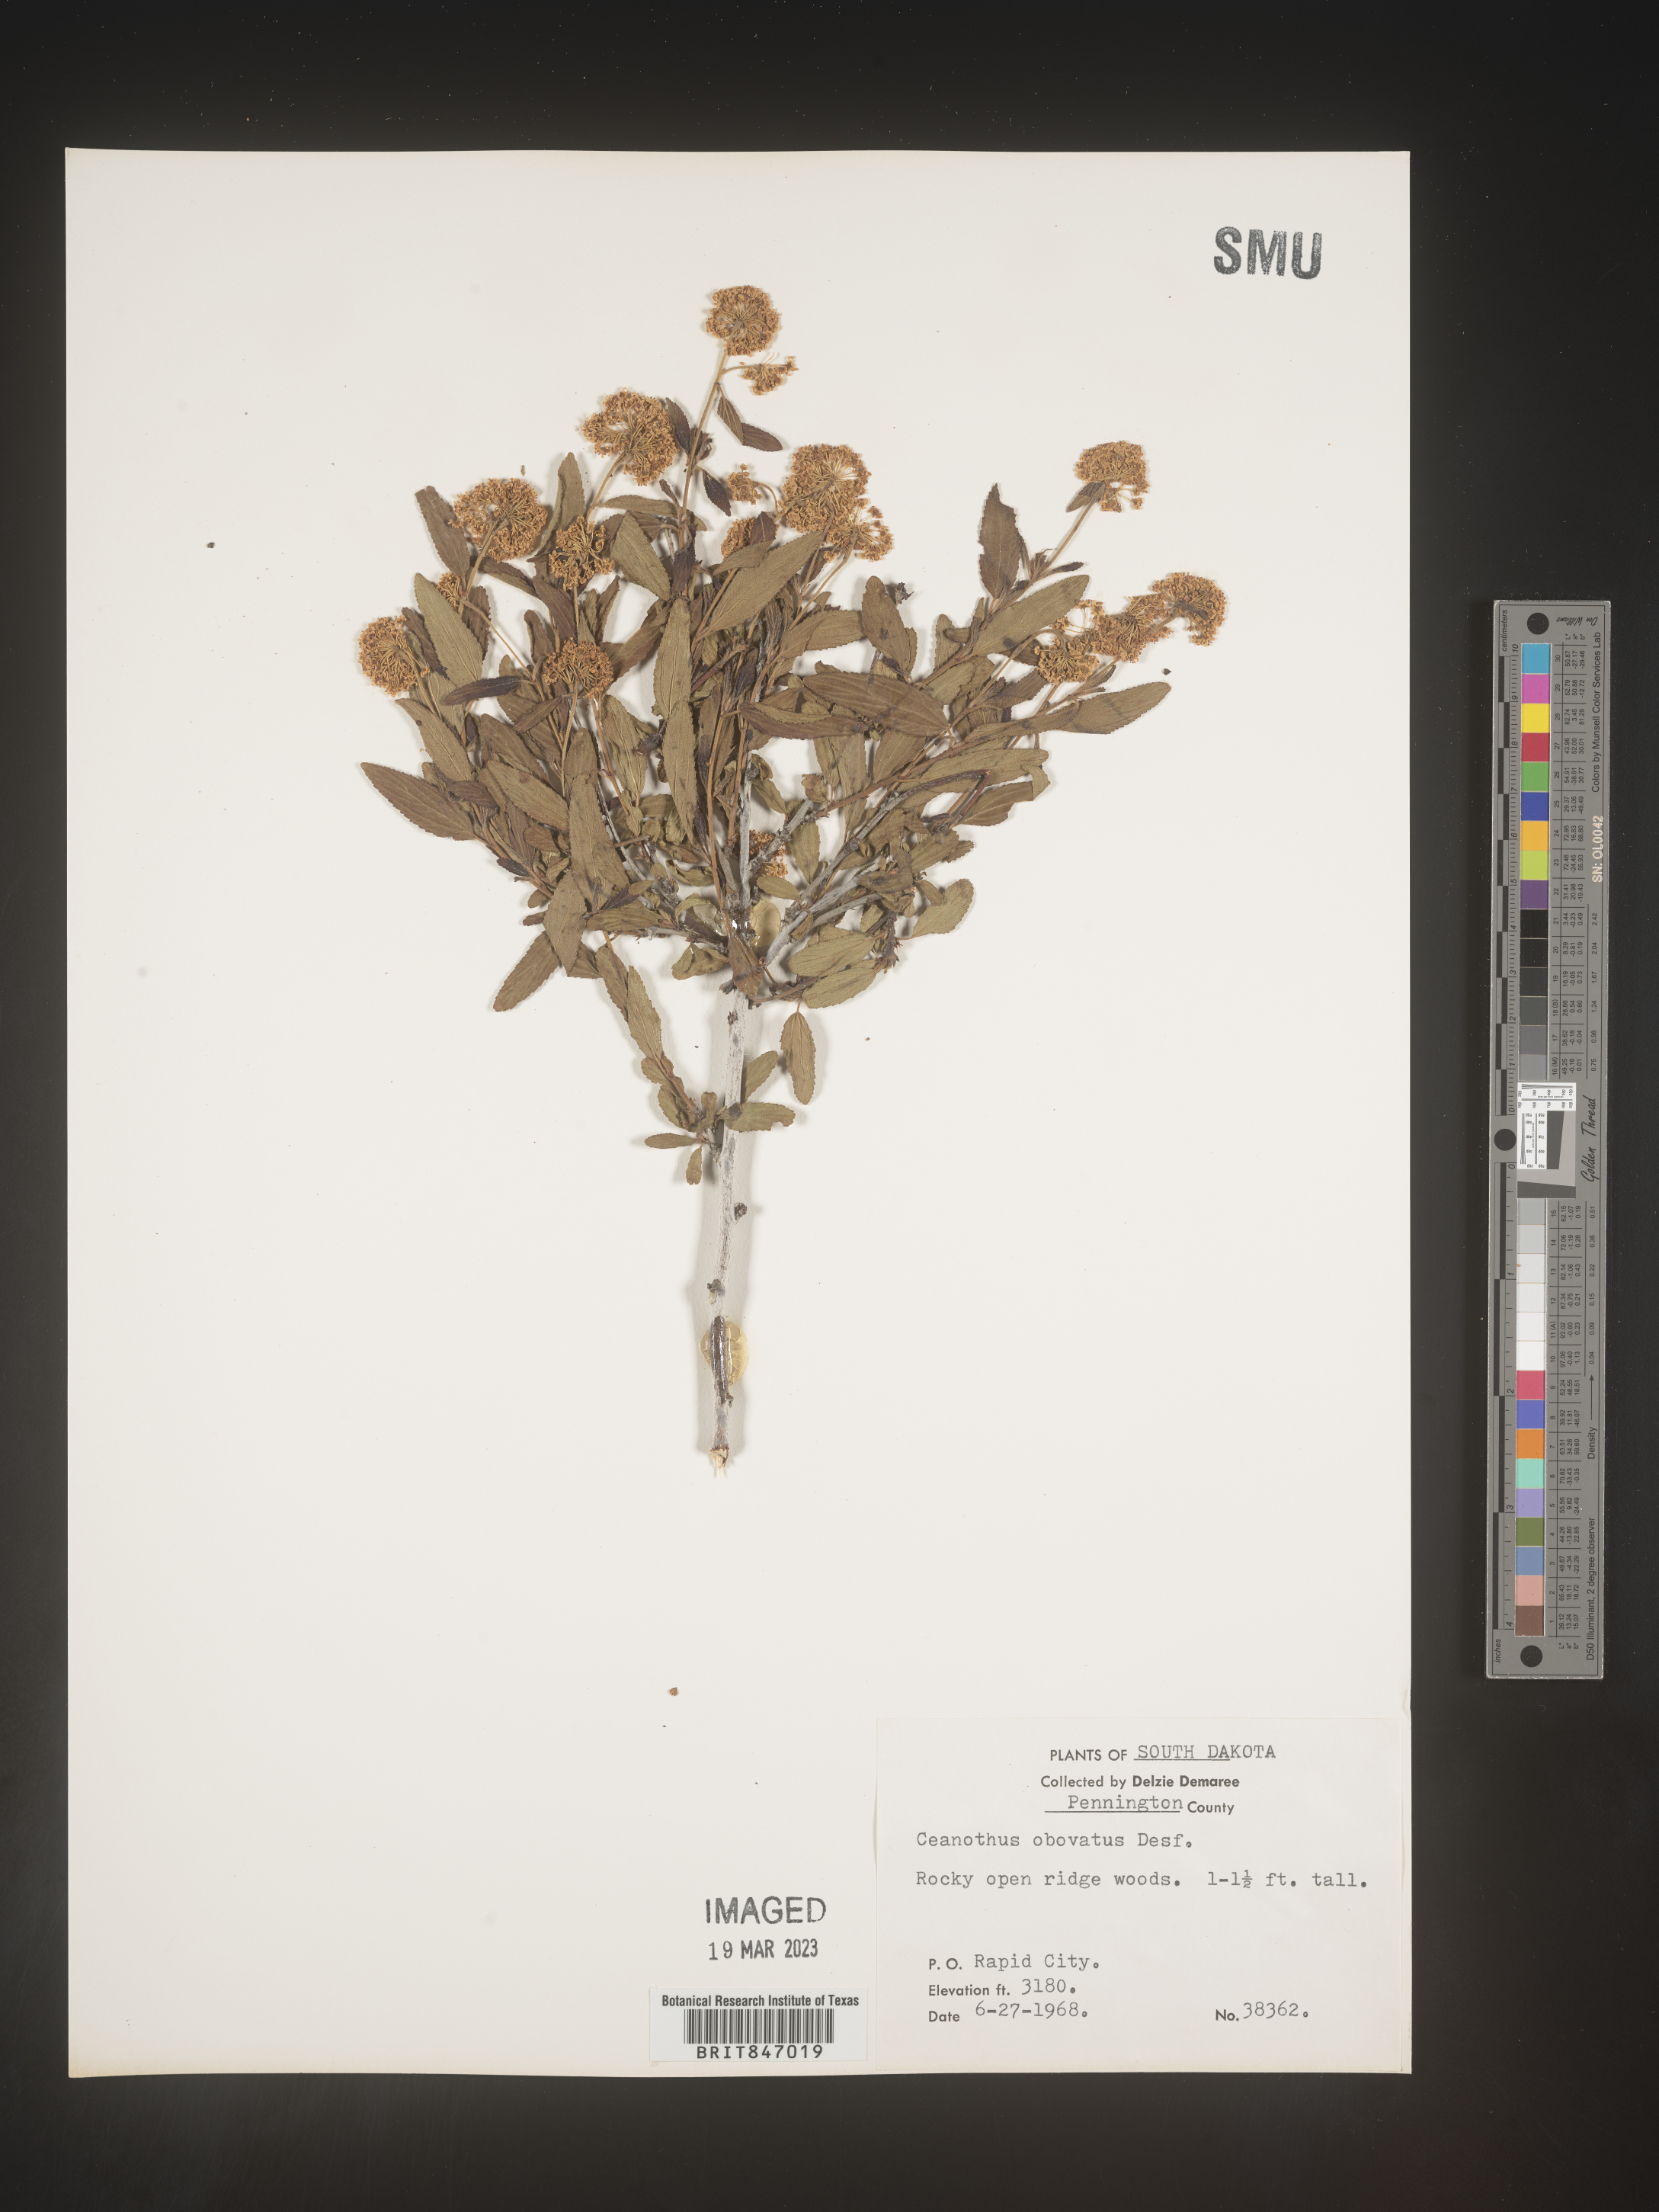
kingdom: Plantae
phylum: Tracheophyta
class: Magnoliopsida
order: Rosales
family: Rhamnaceae
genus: Ceanothus
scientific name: Ceanothus herbaceus
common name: Inland ceanothus
